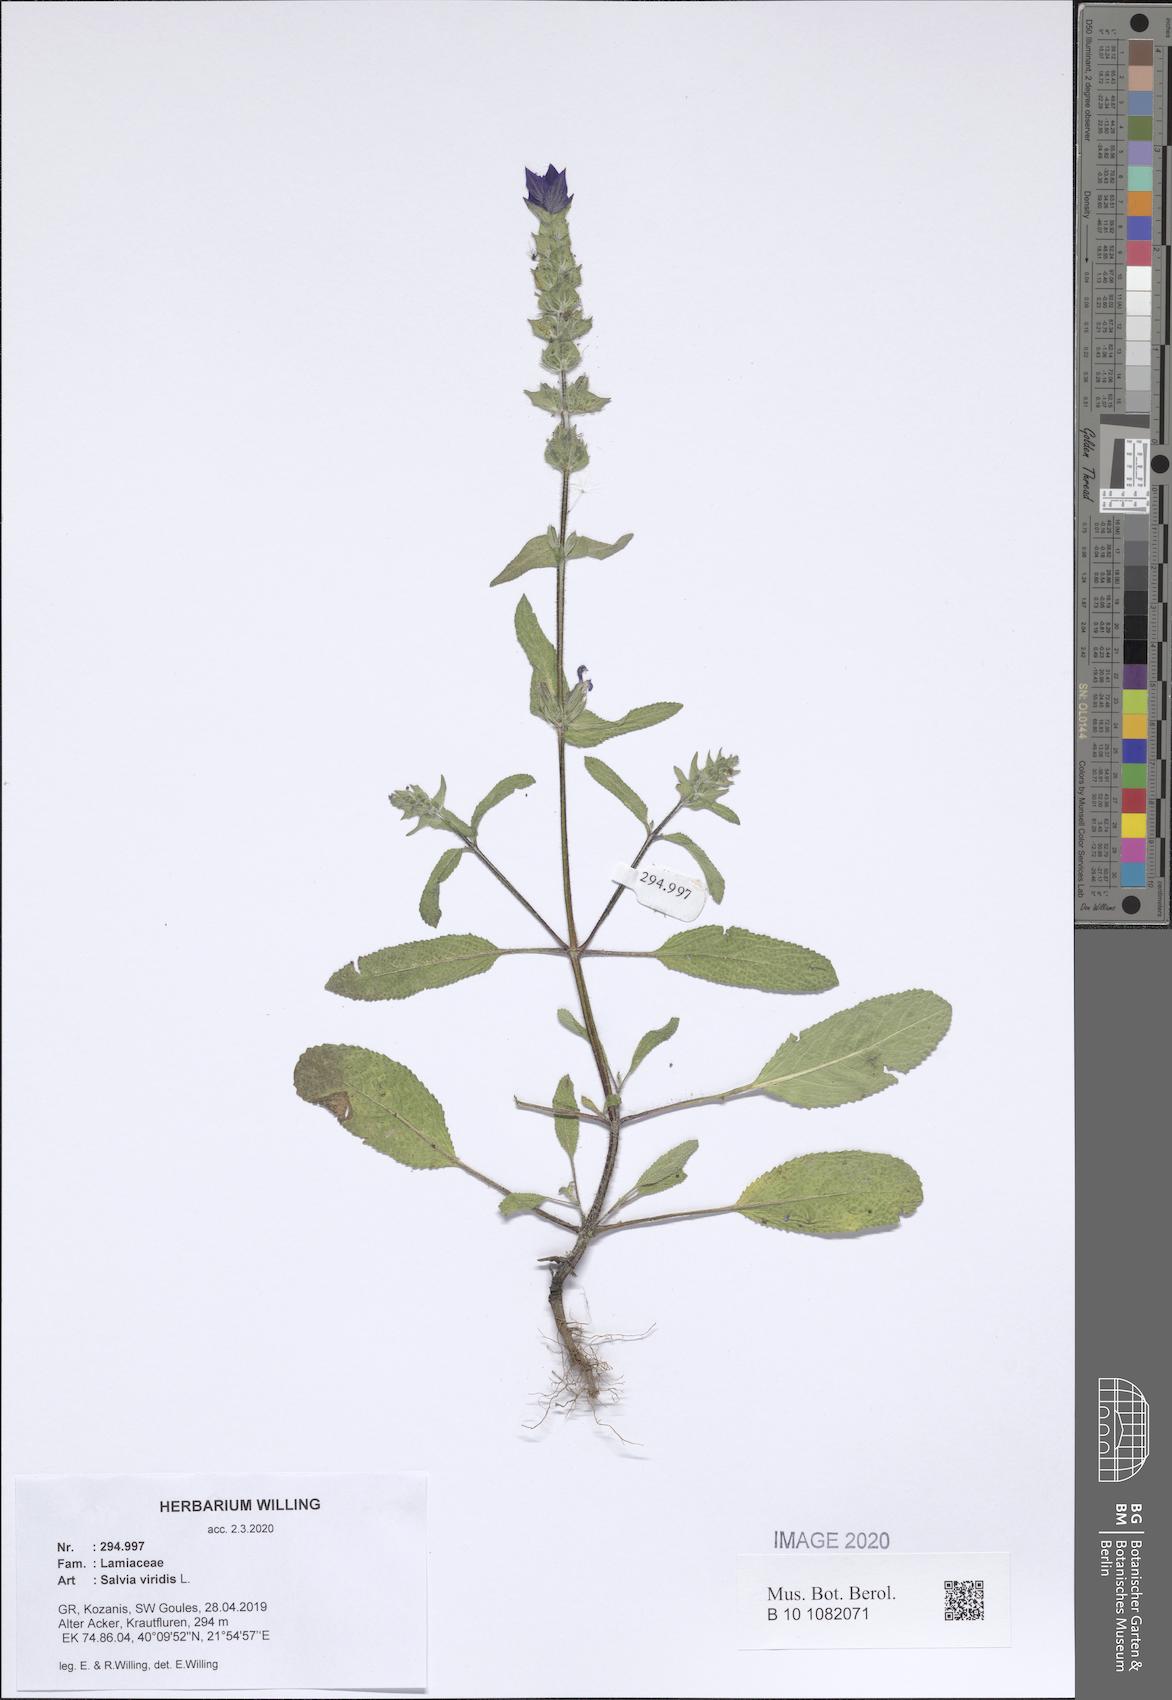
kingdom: Plantae
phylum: Tracheophyta
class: Magnoliopsida
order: Lamiales
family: Lamiaceae
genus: Salvia
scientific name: Salvia viridis
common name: Annual clary
